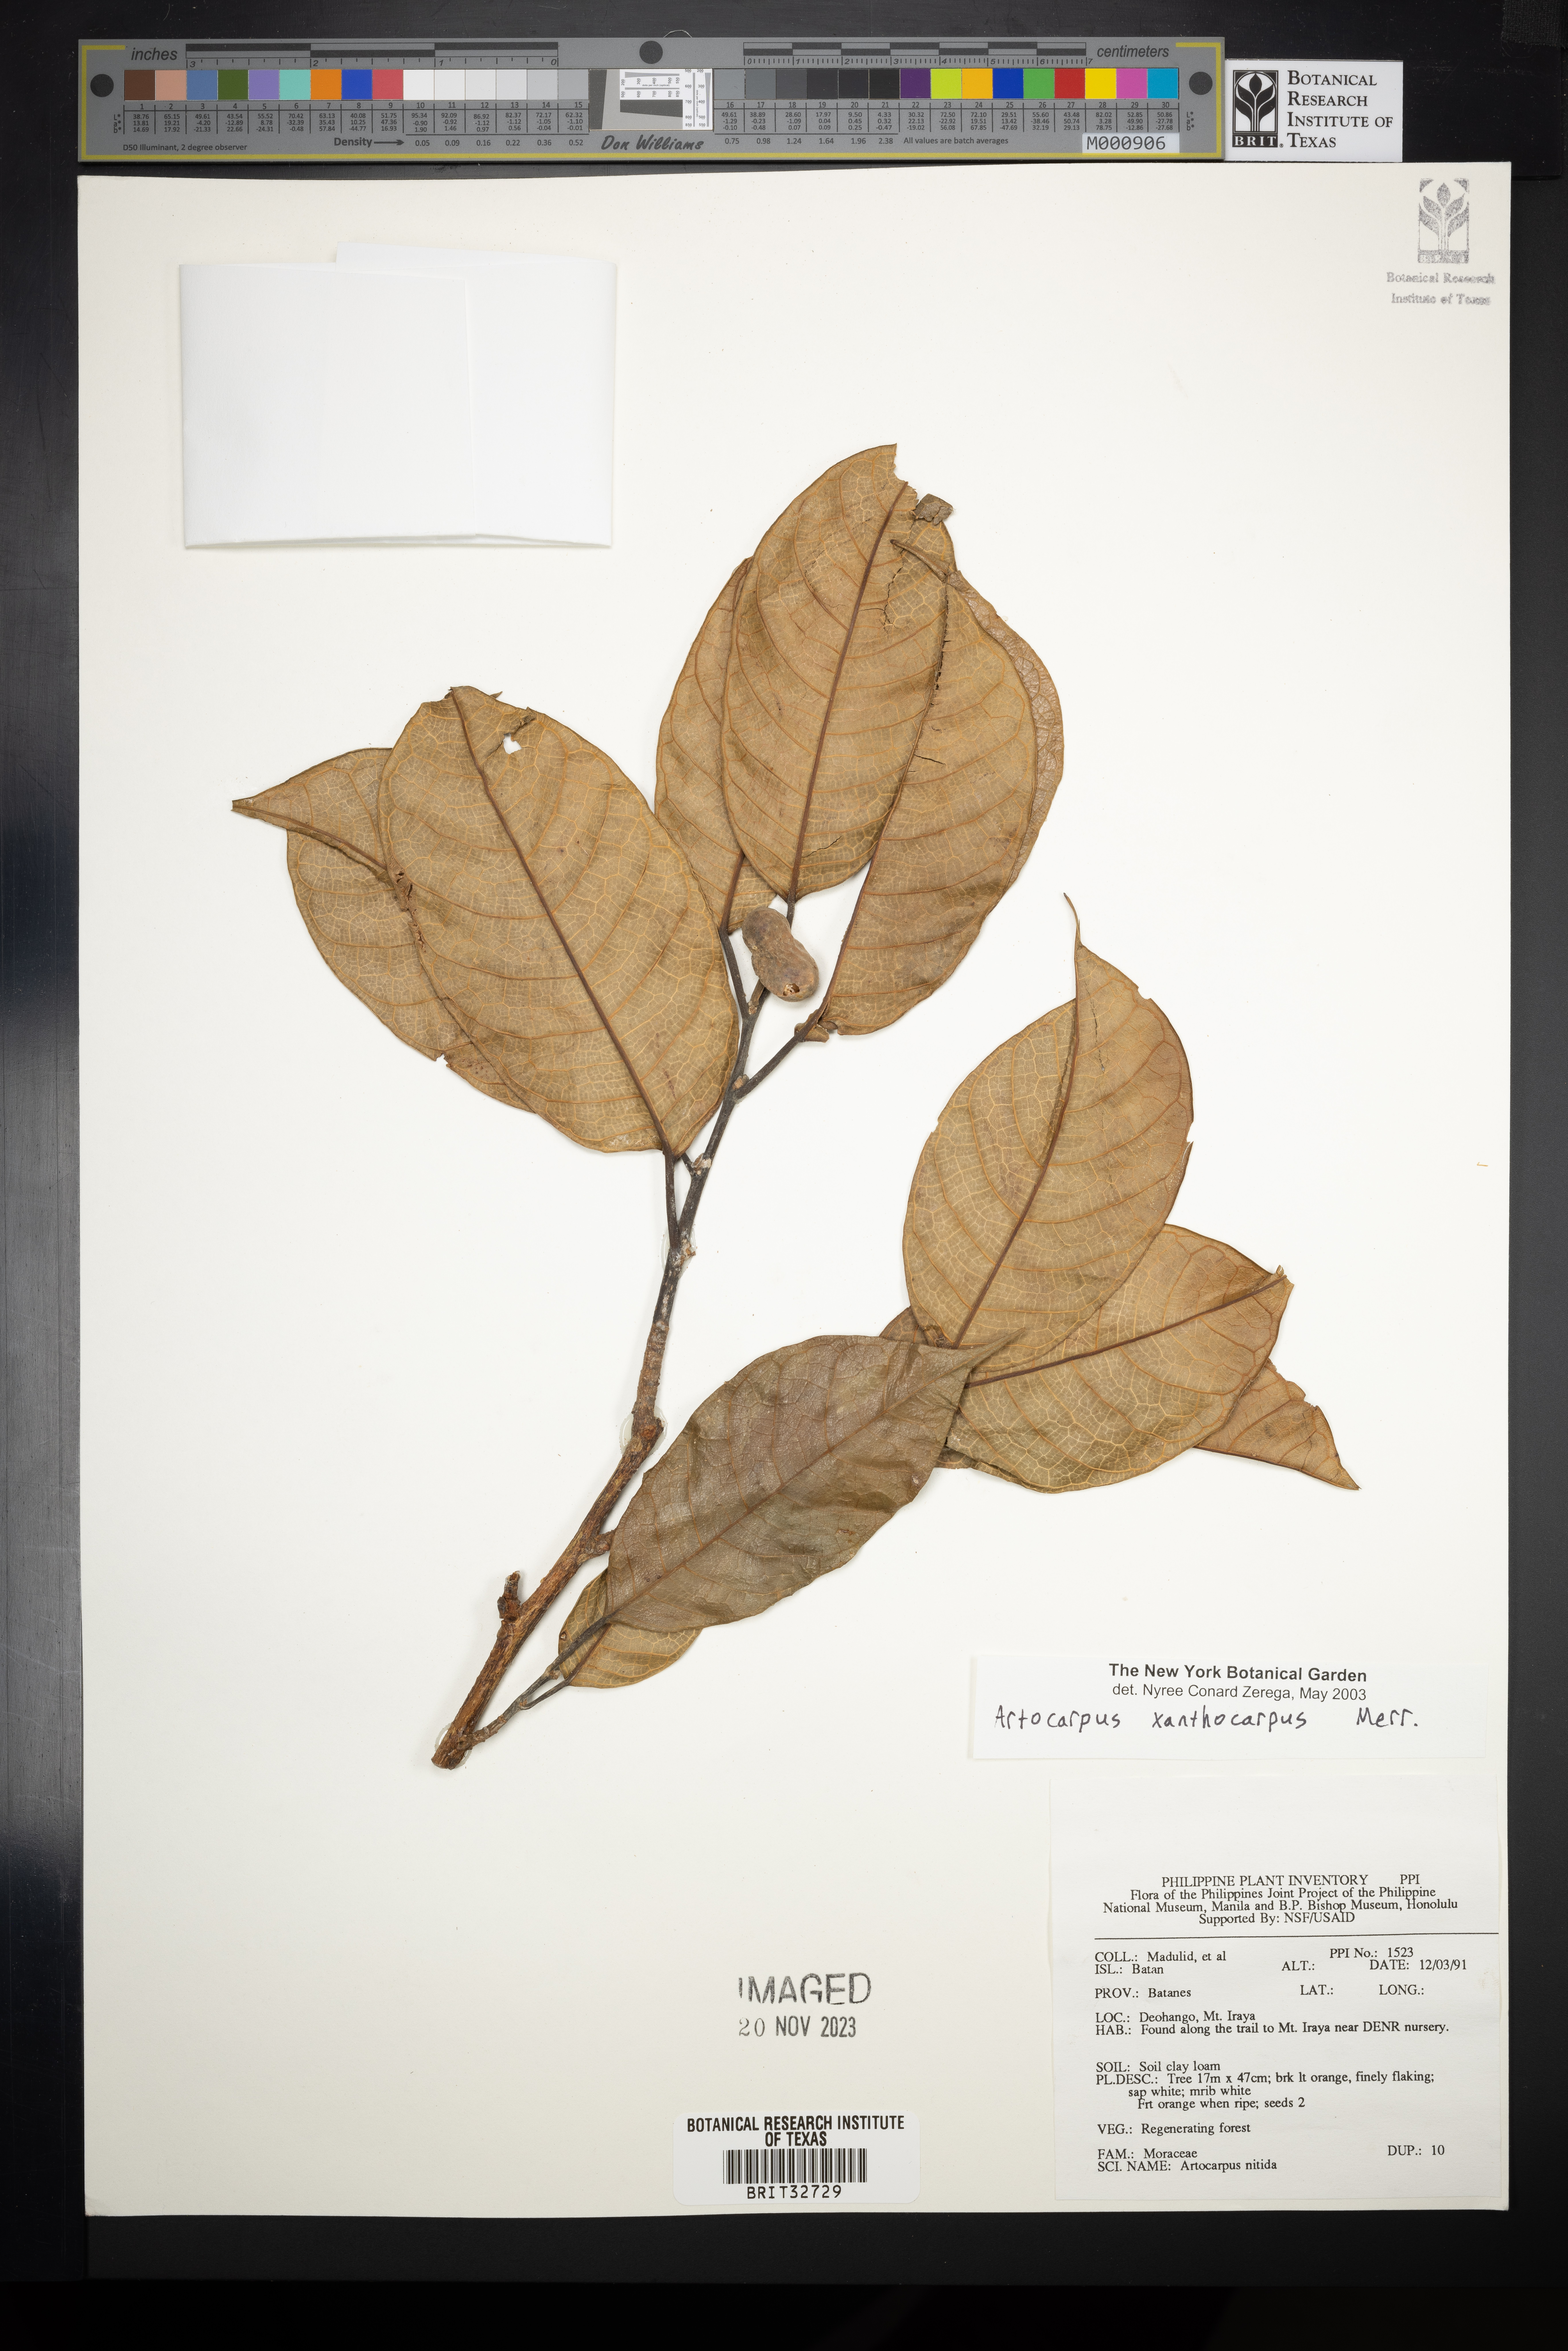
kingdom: Plantae
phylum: Tracheophyta
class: Magnoliopsida
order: Rosales
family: Moraceae
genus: Artocarpus
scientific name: Artocarpus lamellosus
